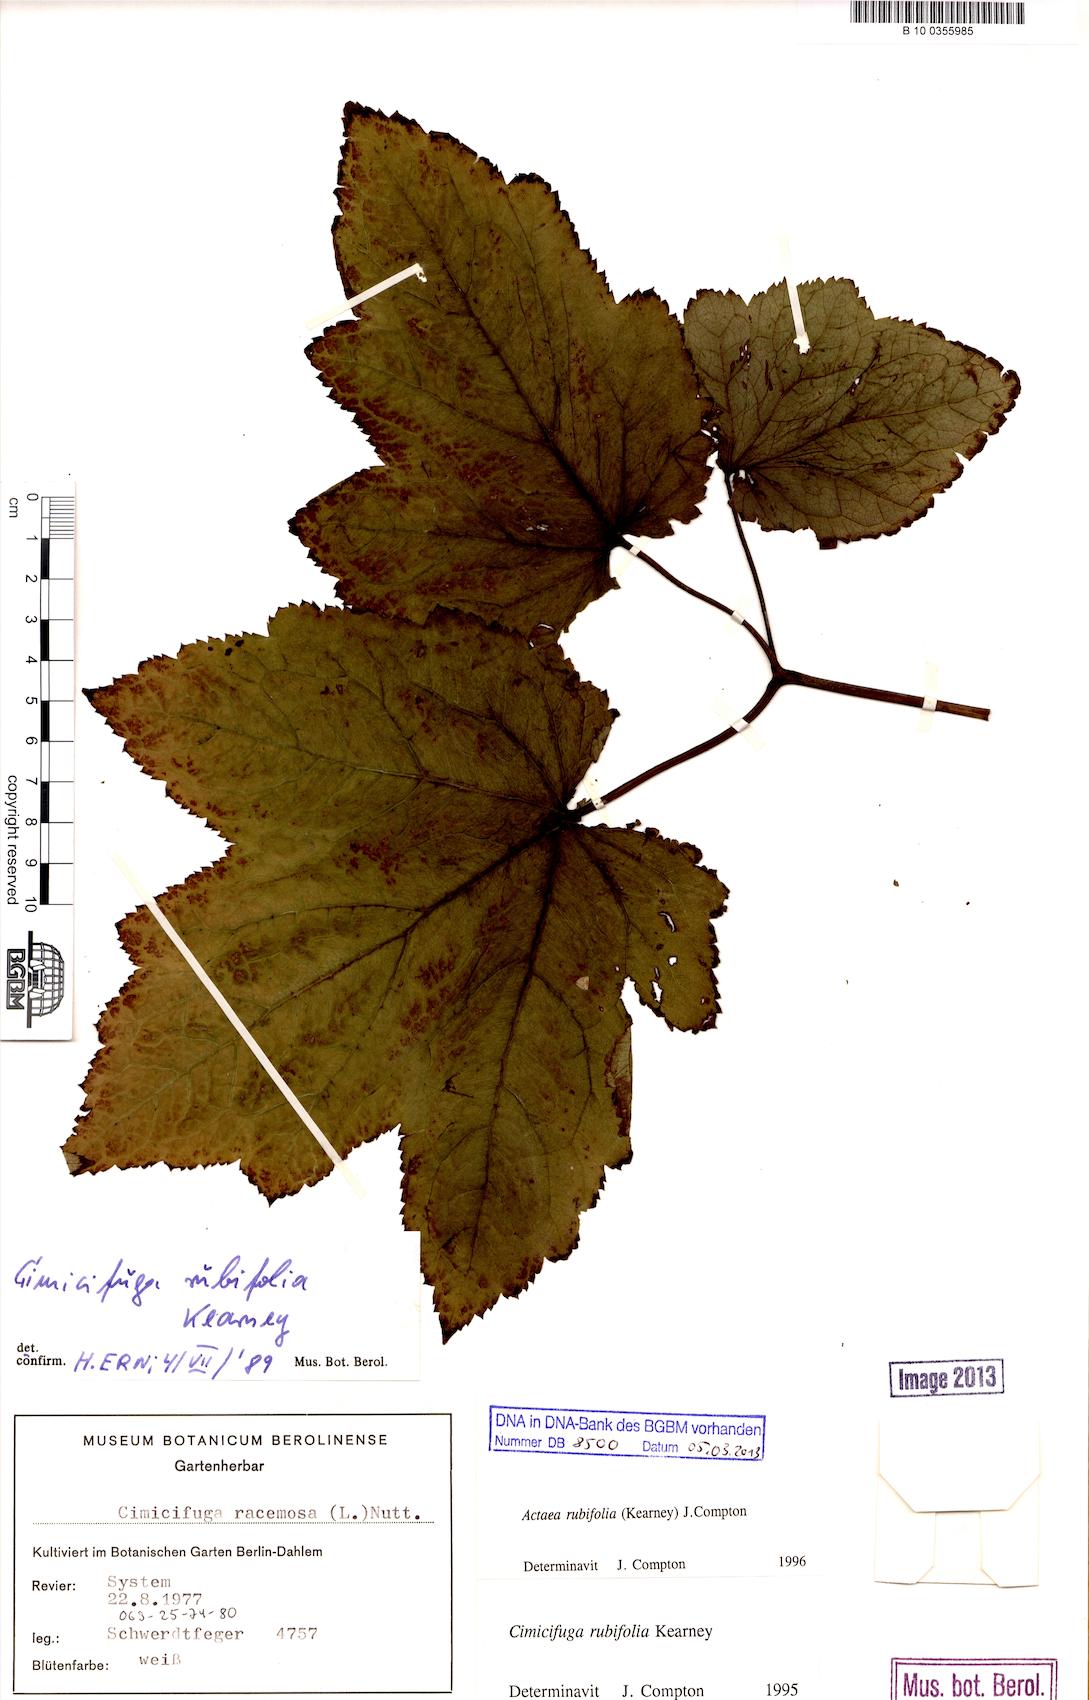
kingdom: Plantae
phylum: Tracheophyta
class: Magnoliopsida
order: Ranunculales
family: Ranunculaceae
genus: Actaea
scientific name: Actaea rubifolia
